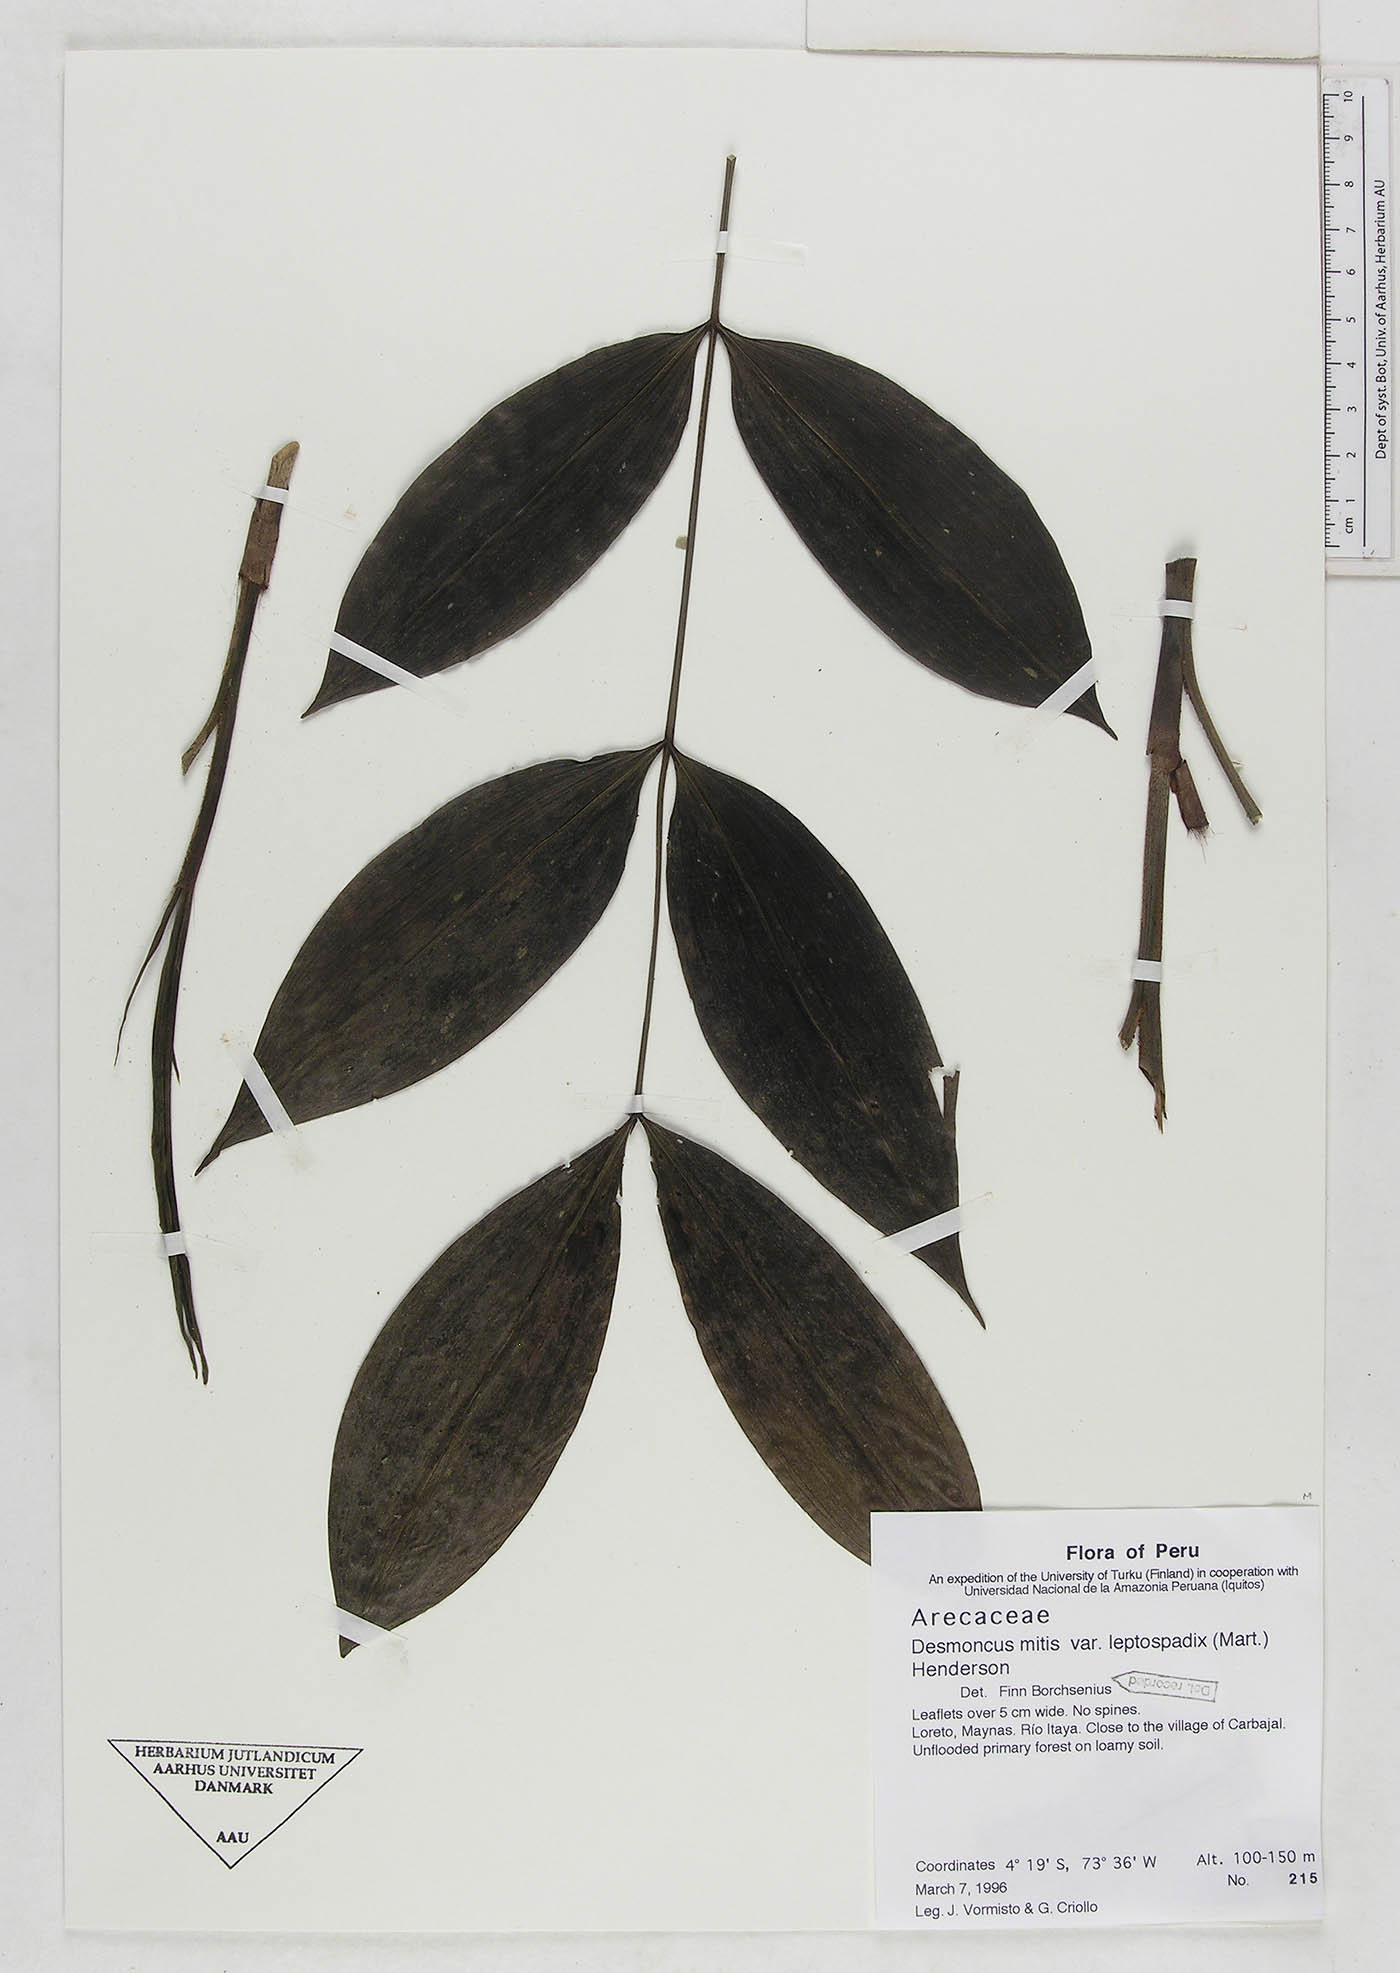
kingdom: Plantae
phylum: Tracheophyta
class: Liliopsida
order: Arecales
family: Arecaceae
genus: Desmoncus
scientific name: Desmoncus mitis
